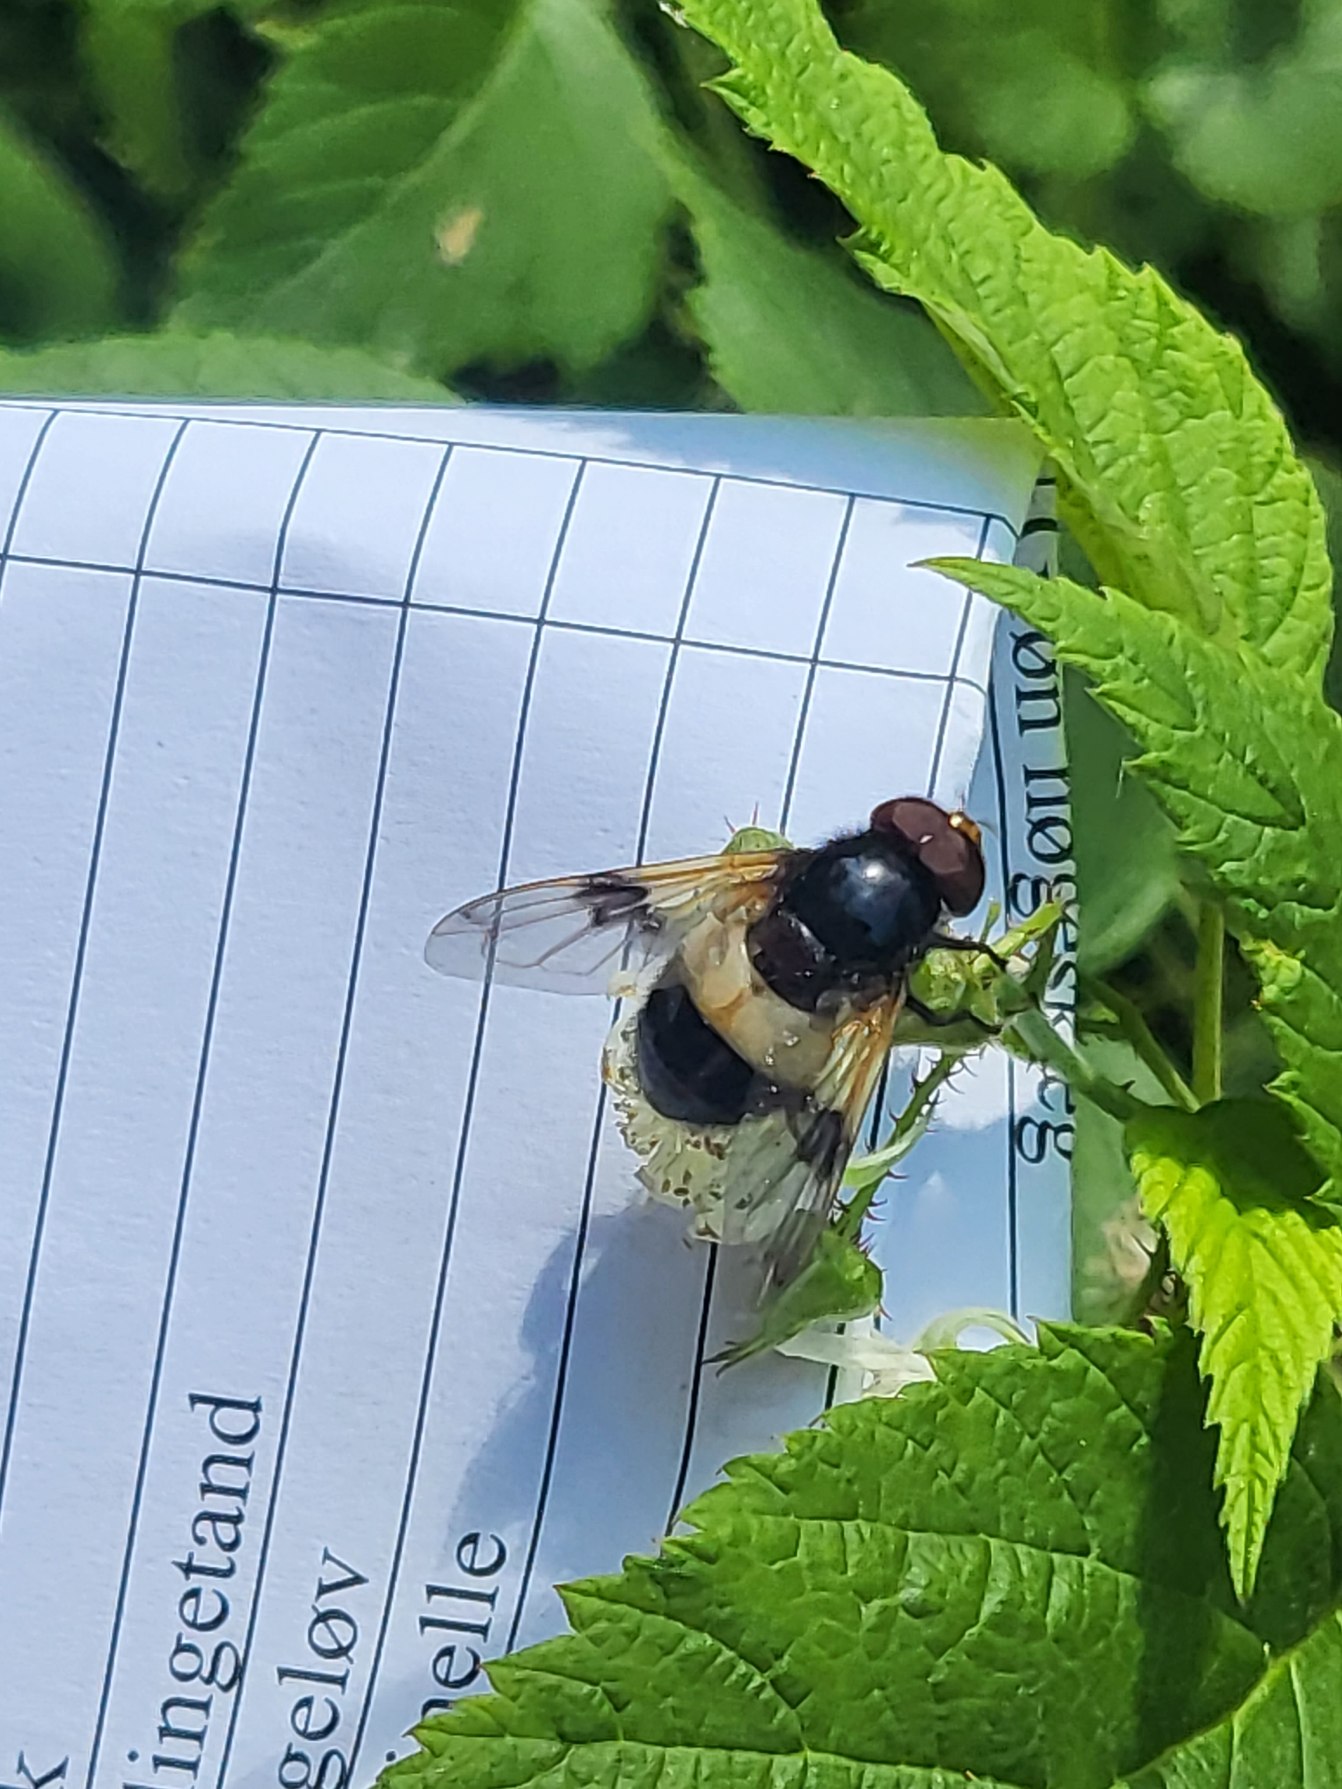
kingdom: Animalia
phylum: Arthropoda
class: Insecta
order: Diptera
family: Syrphidae
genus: Volucella
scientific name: Volucella pellucens
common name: Hvidbåndet humlesvirreflue
